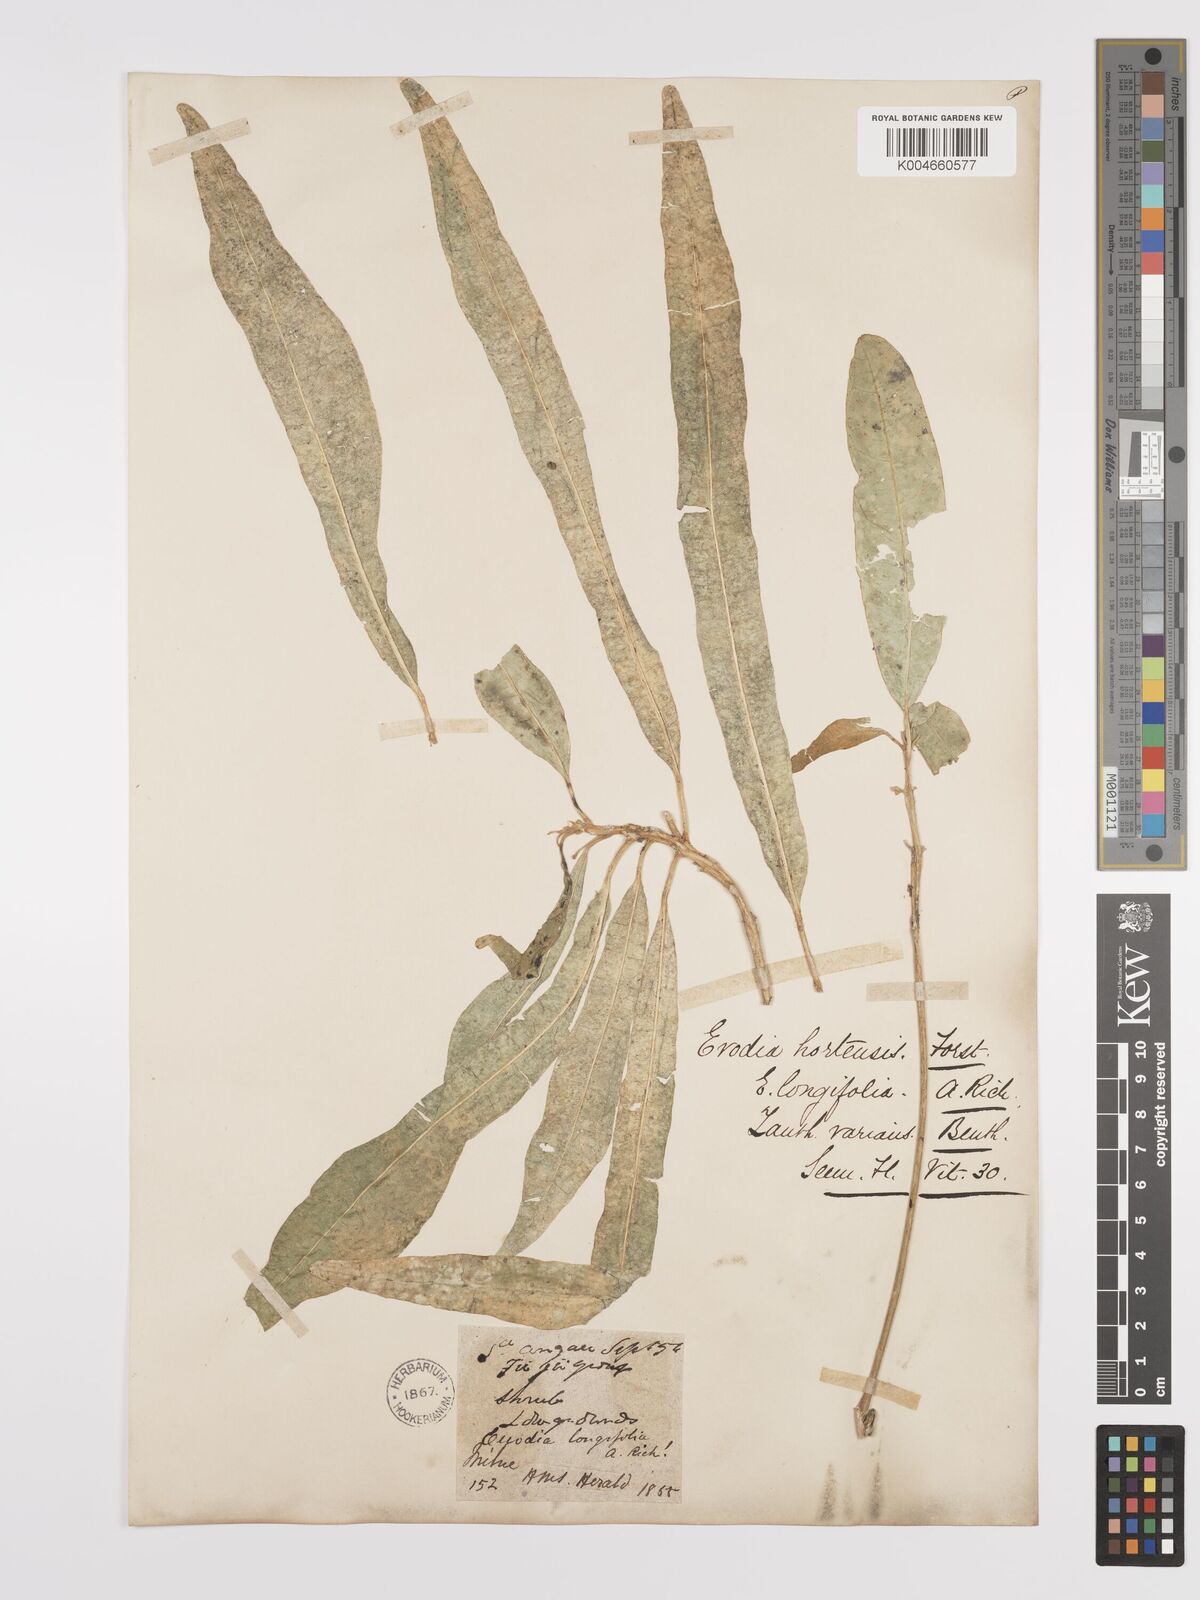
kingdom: Plantae
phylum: Tracheophyta
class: Magnoliopsida
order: Sapindales
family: Rutaceae
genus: Euodia
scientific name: Euodia hortensis
